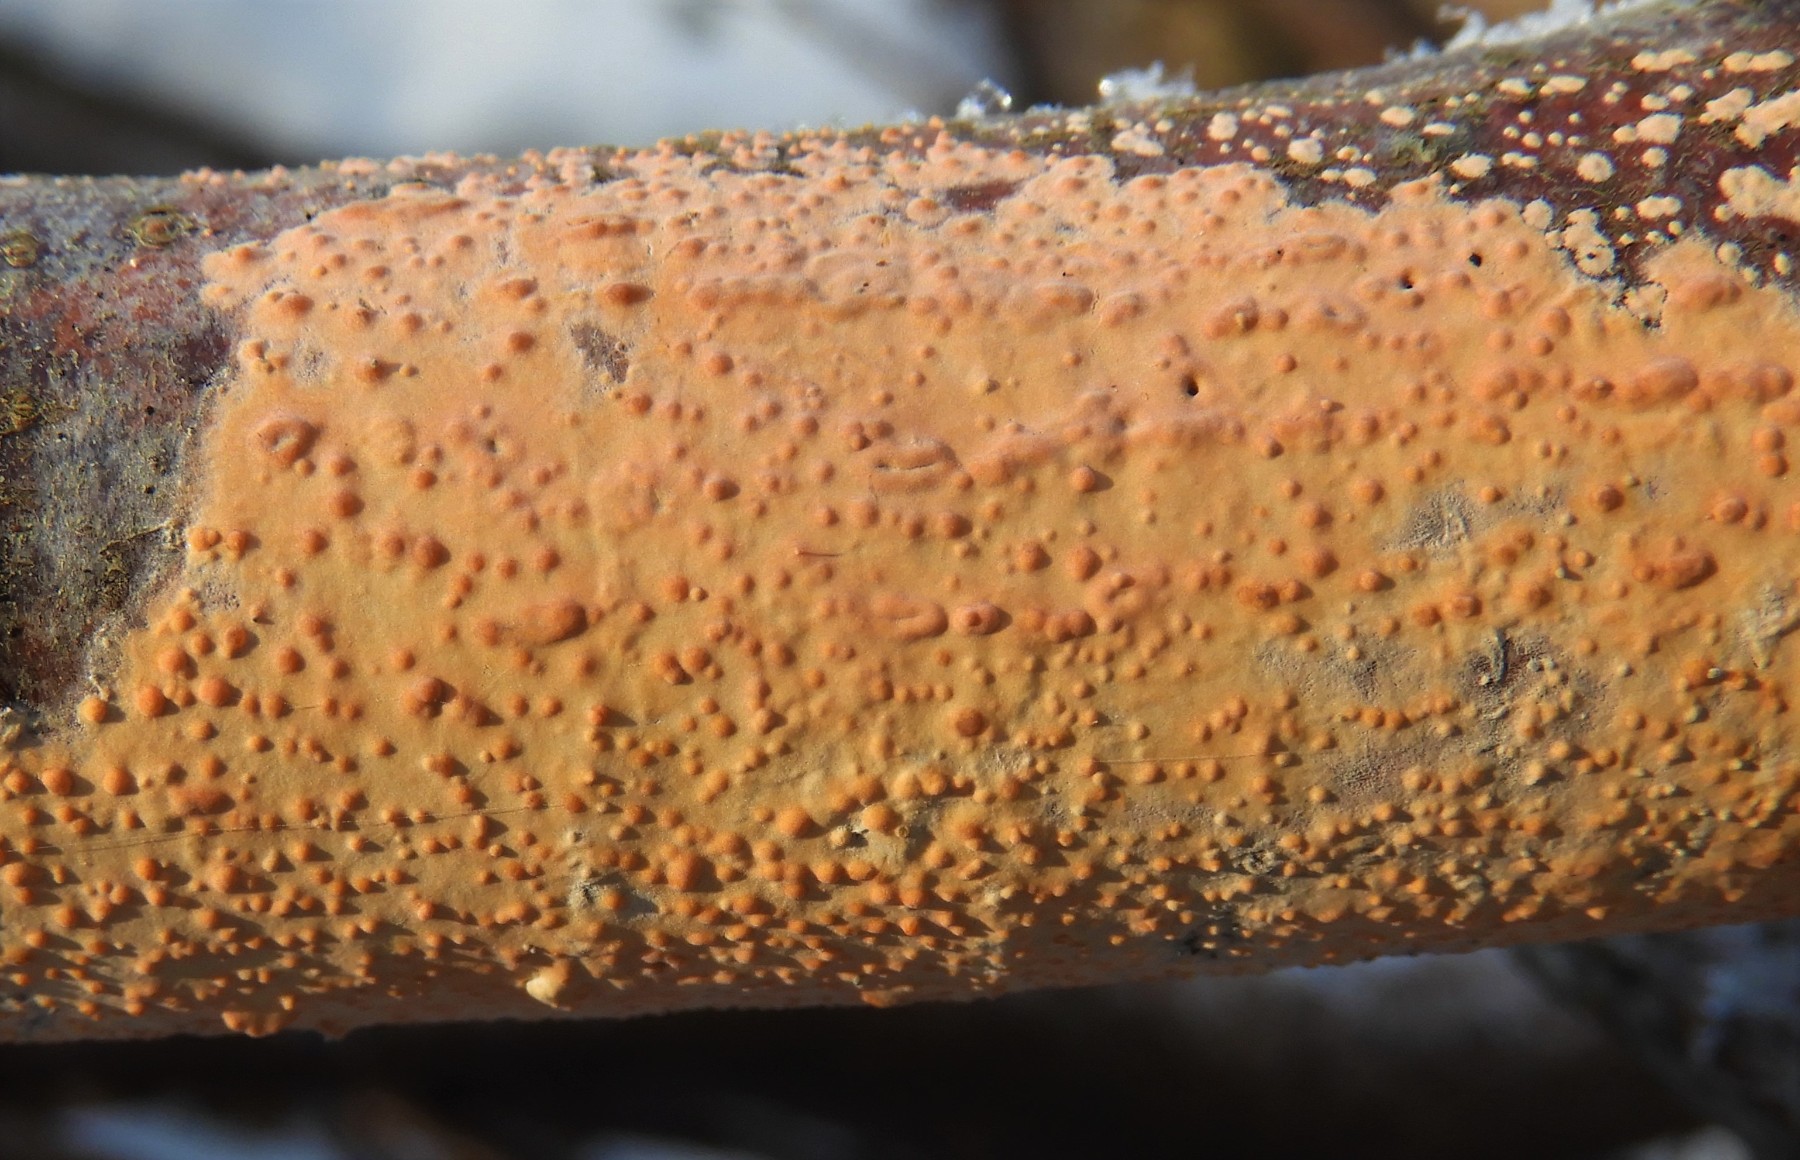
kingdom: Fungi
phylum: Basidiomycota
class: Agaricomycetes
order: Russulales
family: Peniophoraceae
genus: Peniophora
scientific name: Peniophora incarnata
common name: laksefarvet voksskind
